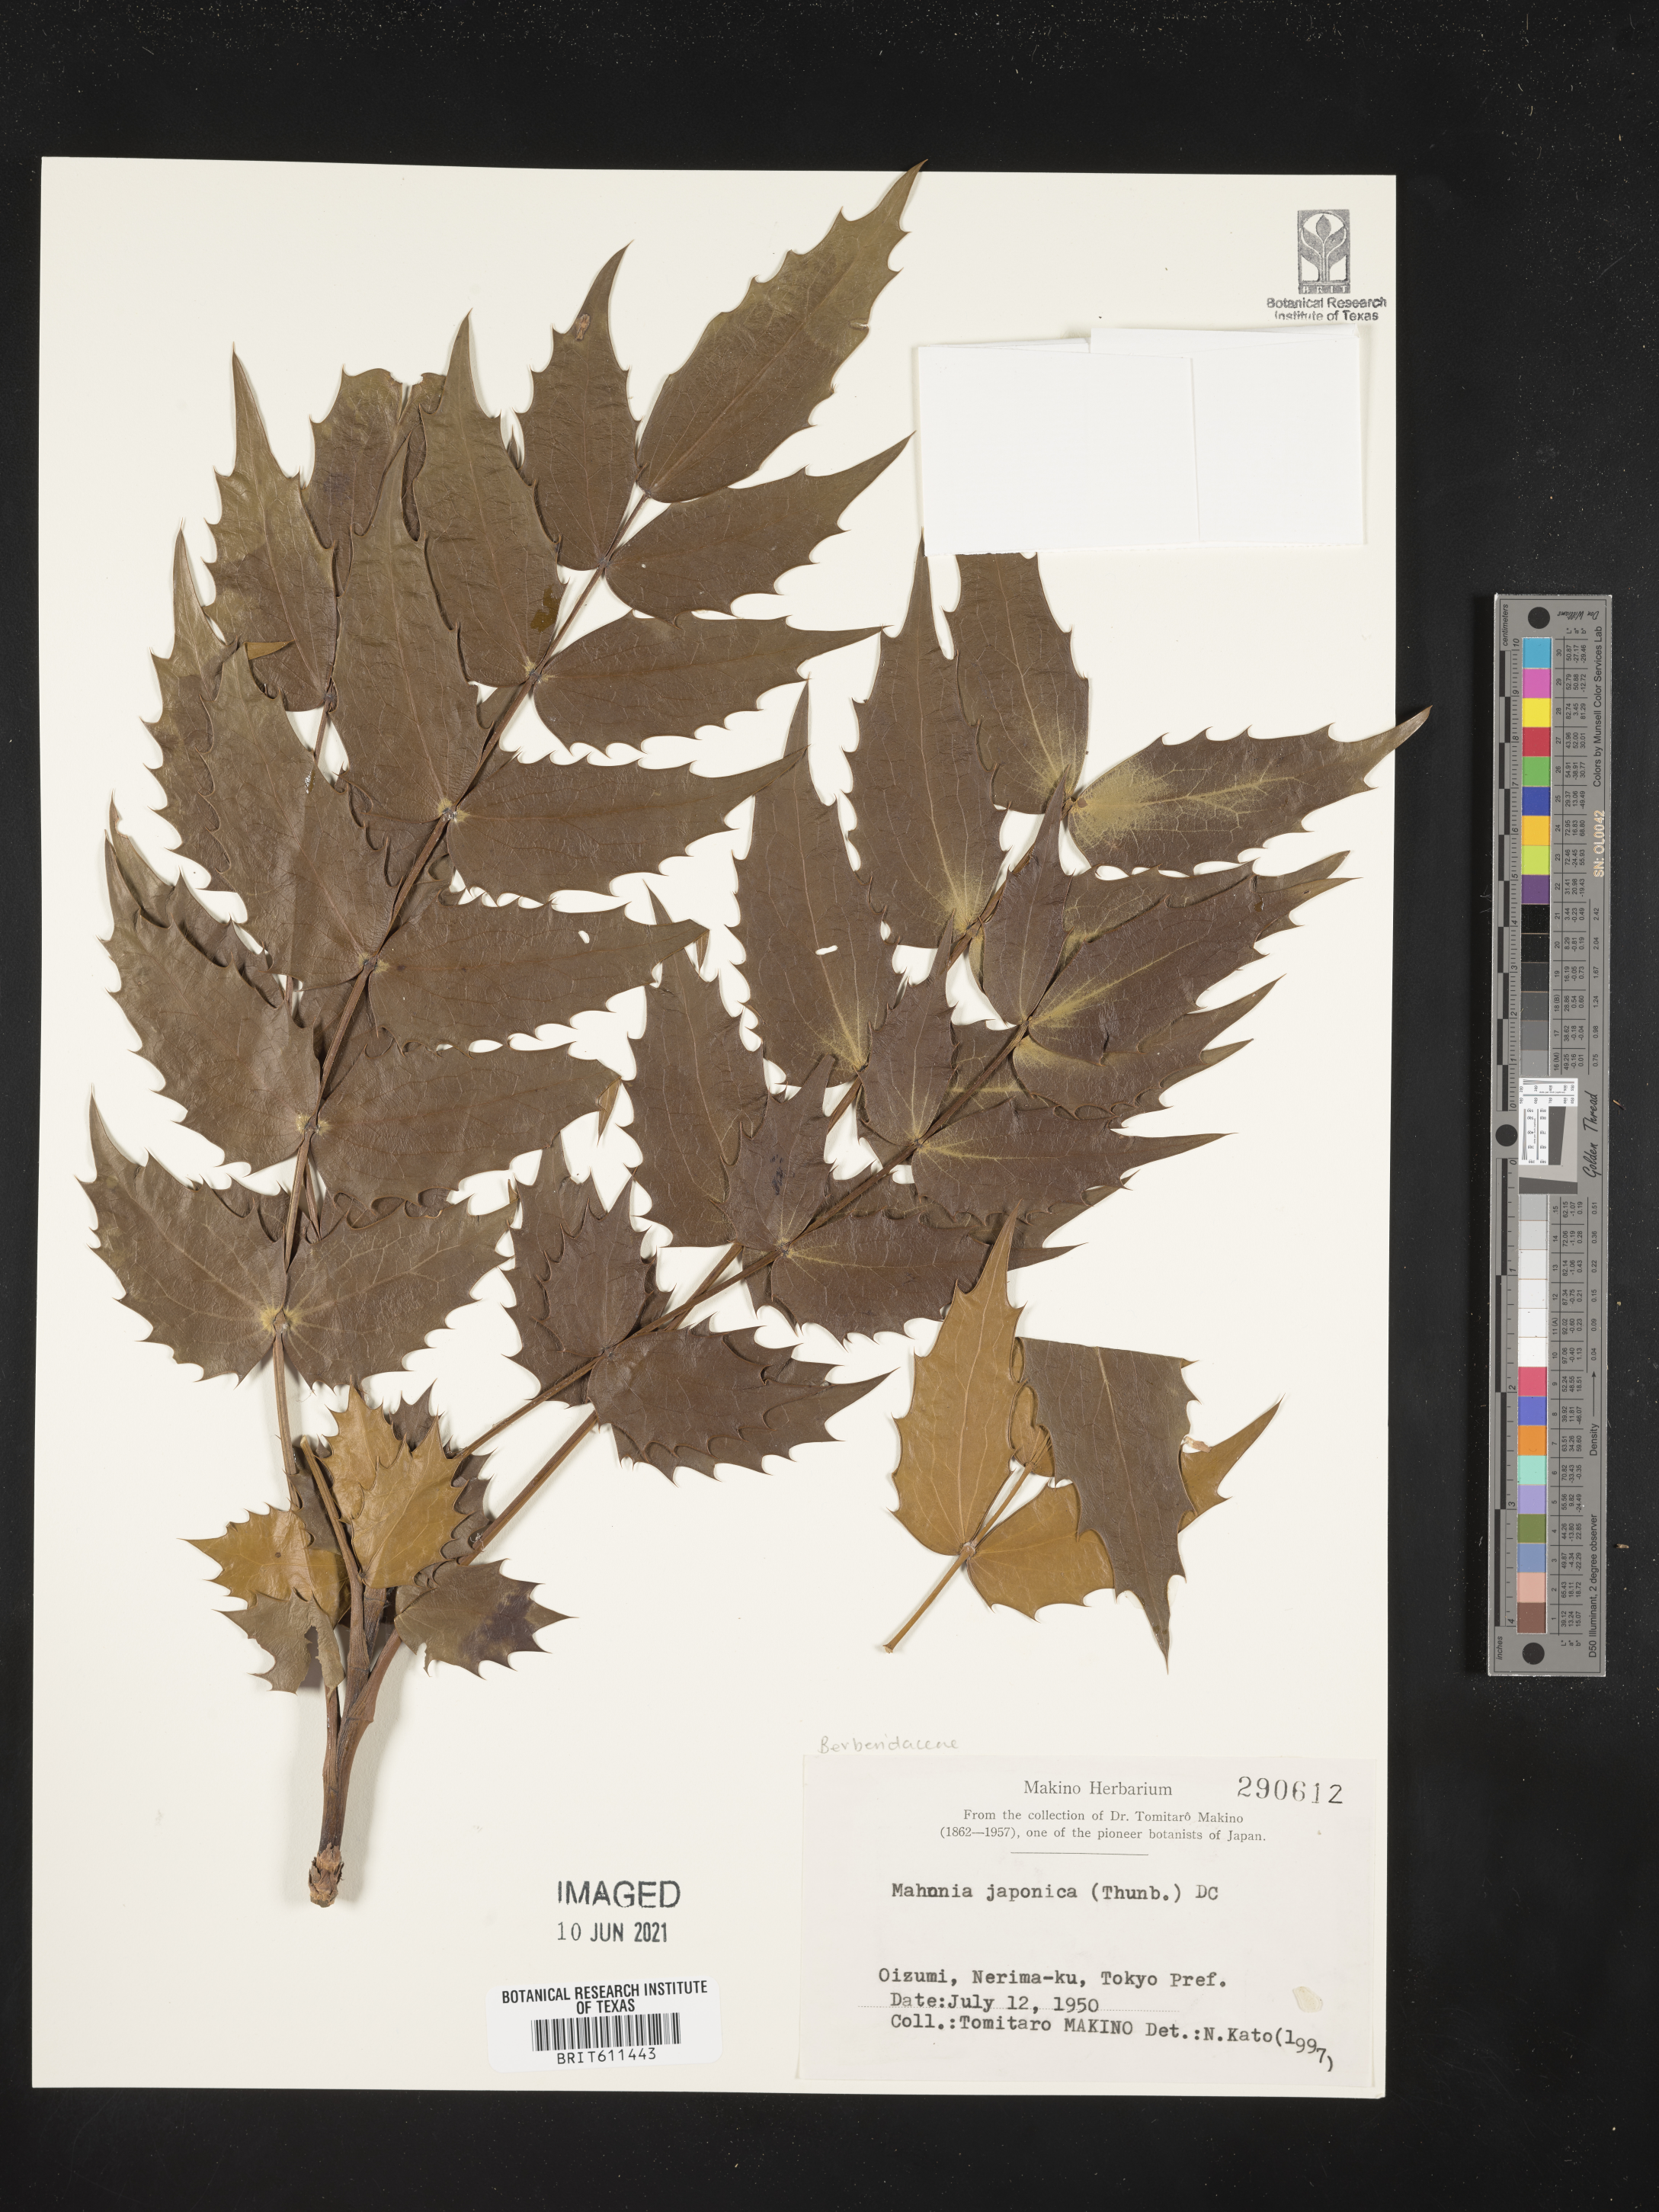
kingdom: Plantae
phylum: Tracheophyta
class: Magnoliopsida
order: Ranunculales
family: Berberidaceae
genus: Mahonia
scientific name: Mahonia japonica
